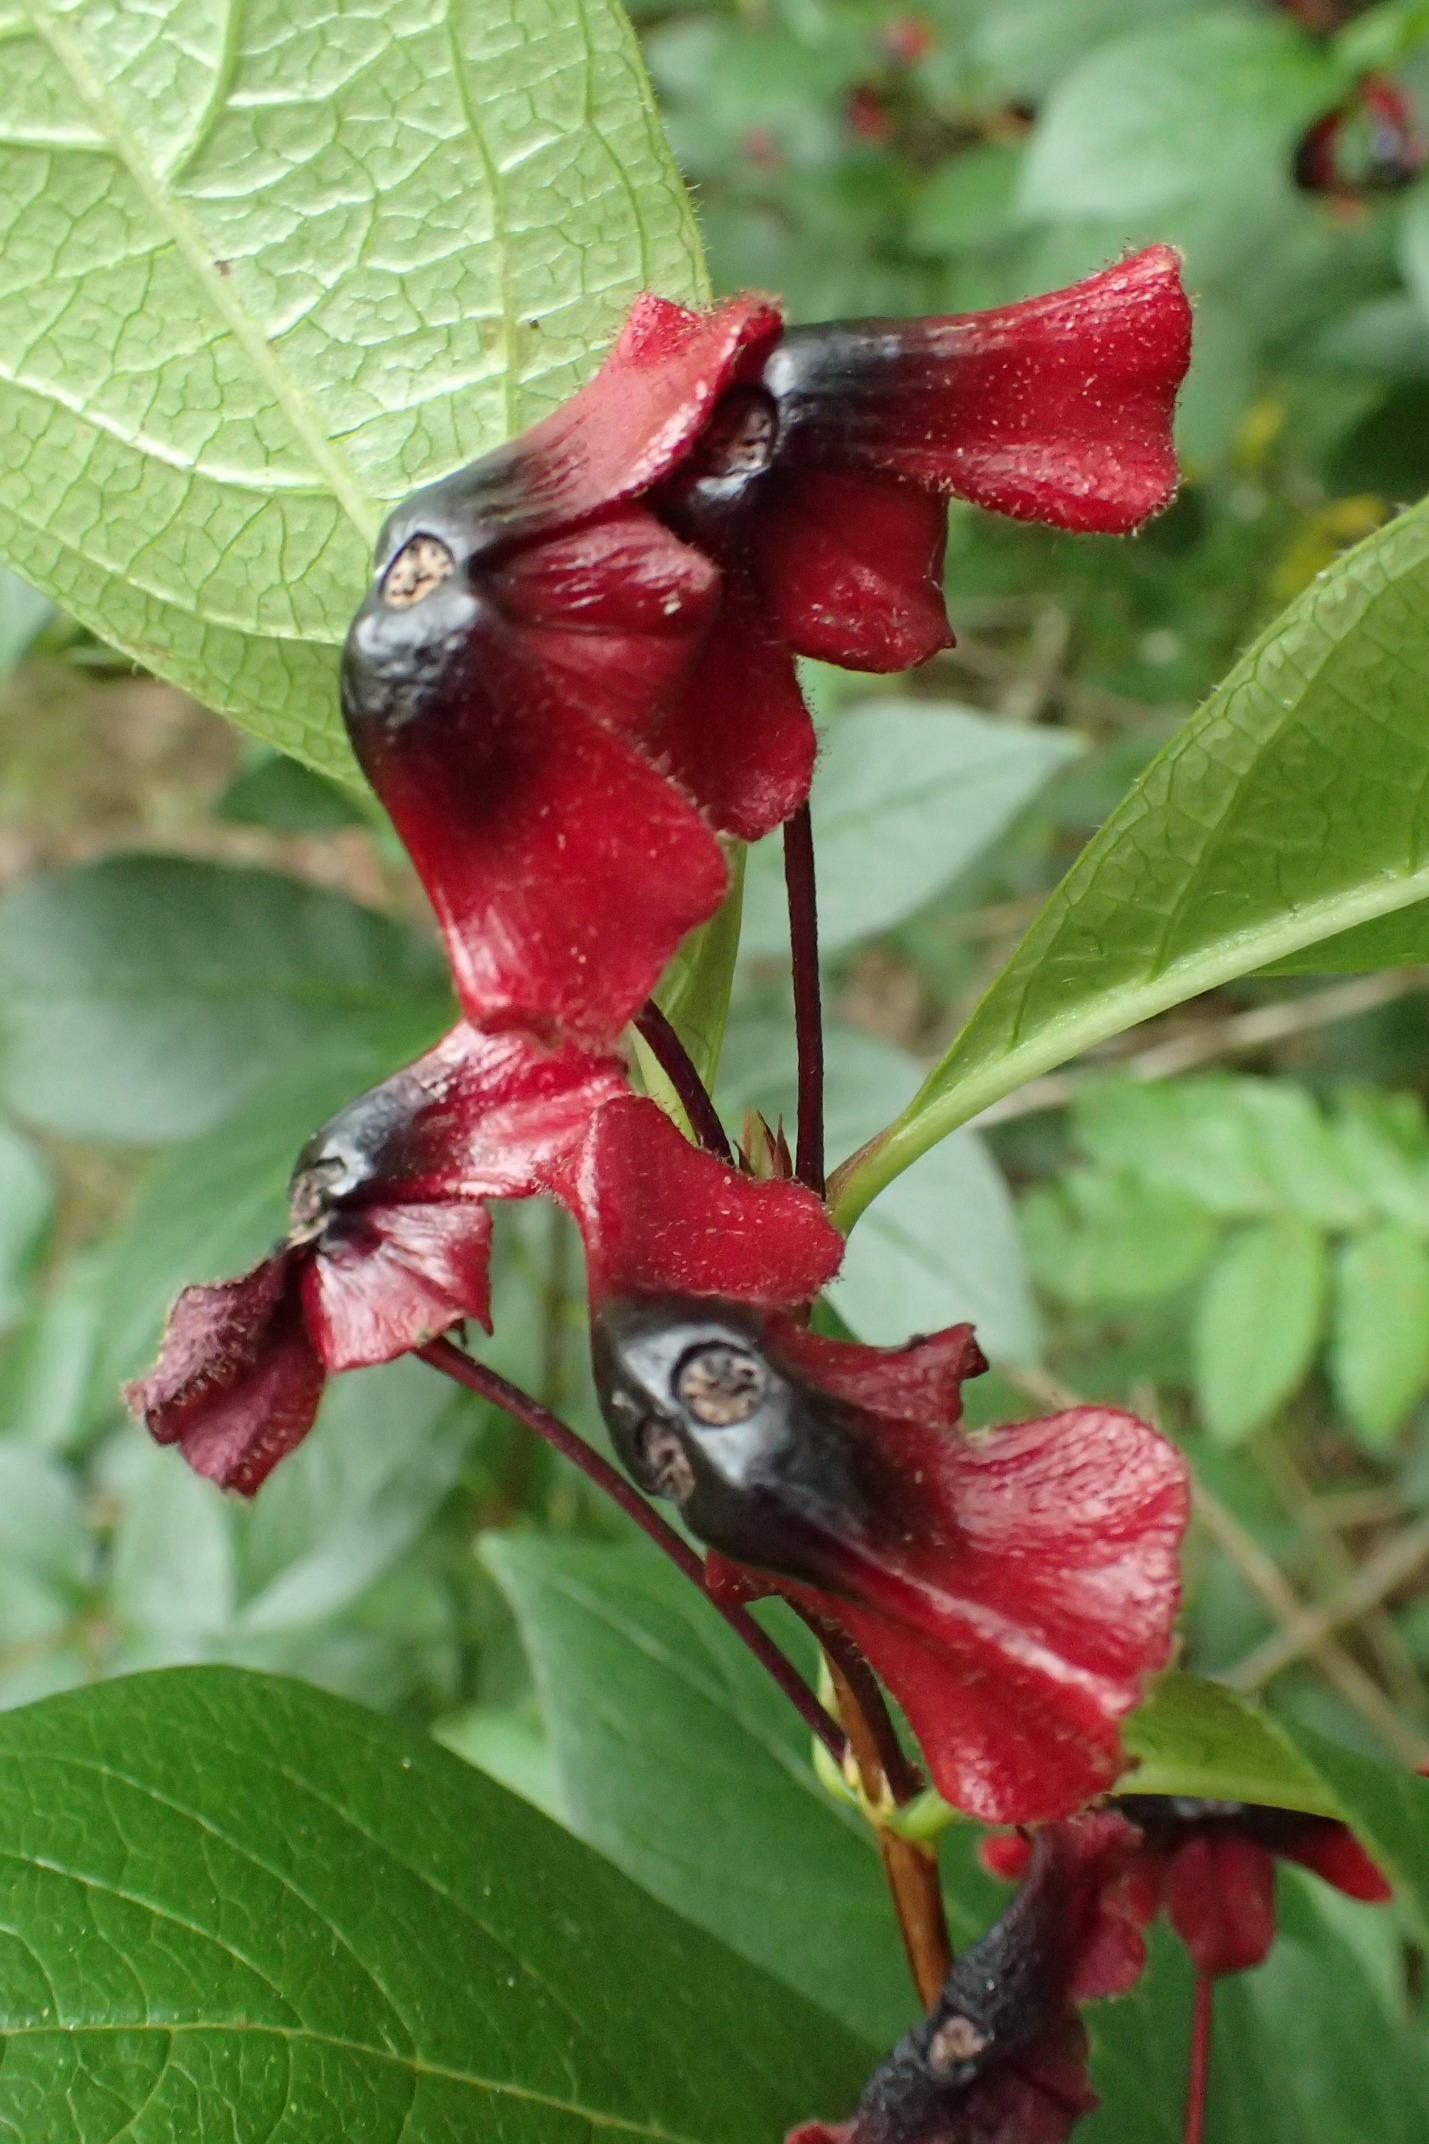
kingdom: Plantae
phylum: Tracheophyta
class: Magnoliopsida
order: Dipsacales
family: Caprifoliaceae
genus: Lonicera
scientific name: Lonicera involucrata
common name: Svøb-gedeblad
